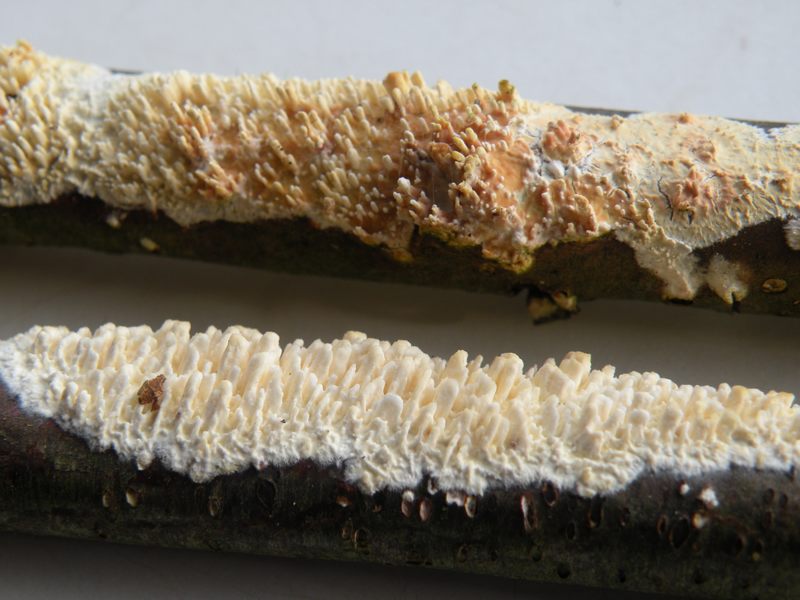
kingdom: Fungi
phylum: Basidiomycota
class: Agaricomycetes
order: Hymenochaetales
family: Schizoporaceae
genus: Schizopora
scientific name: Schizopora paradoxa
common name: hvid tandsvamp
